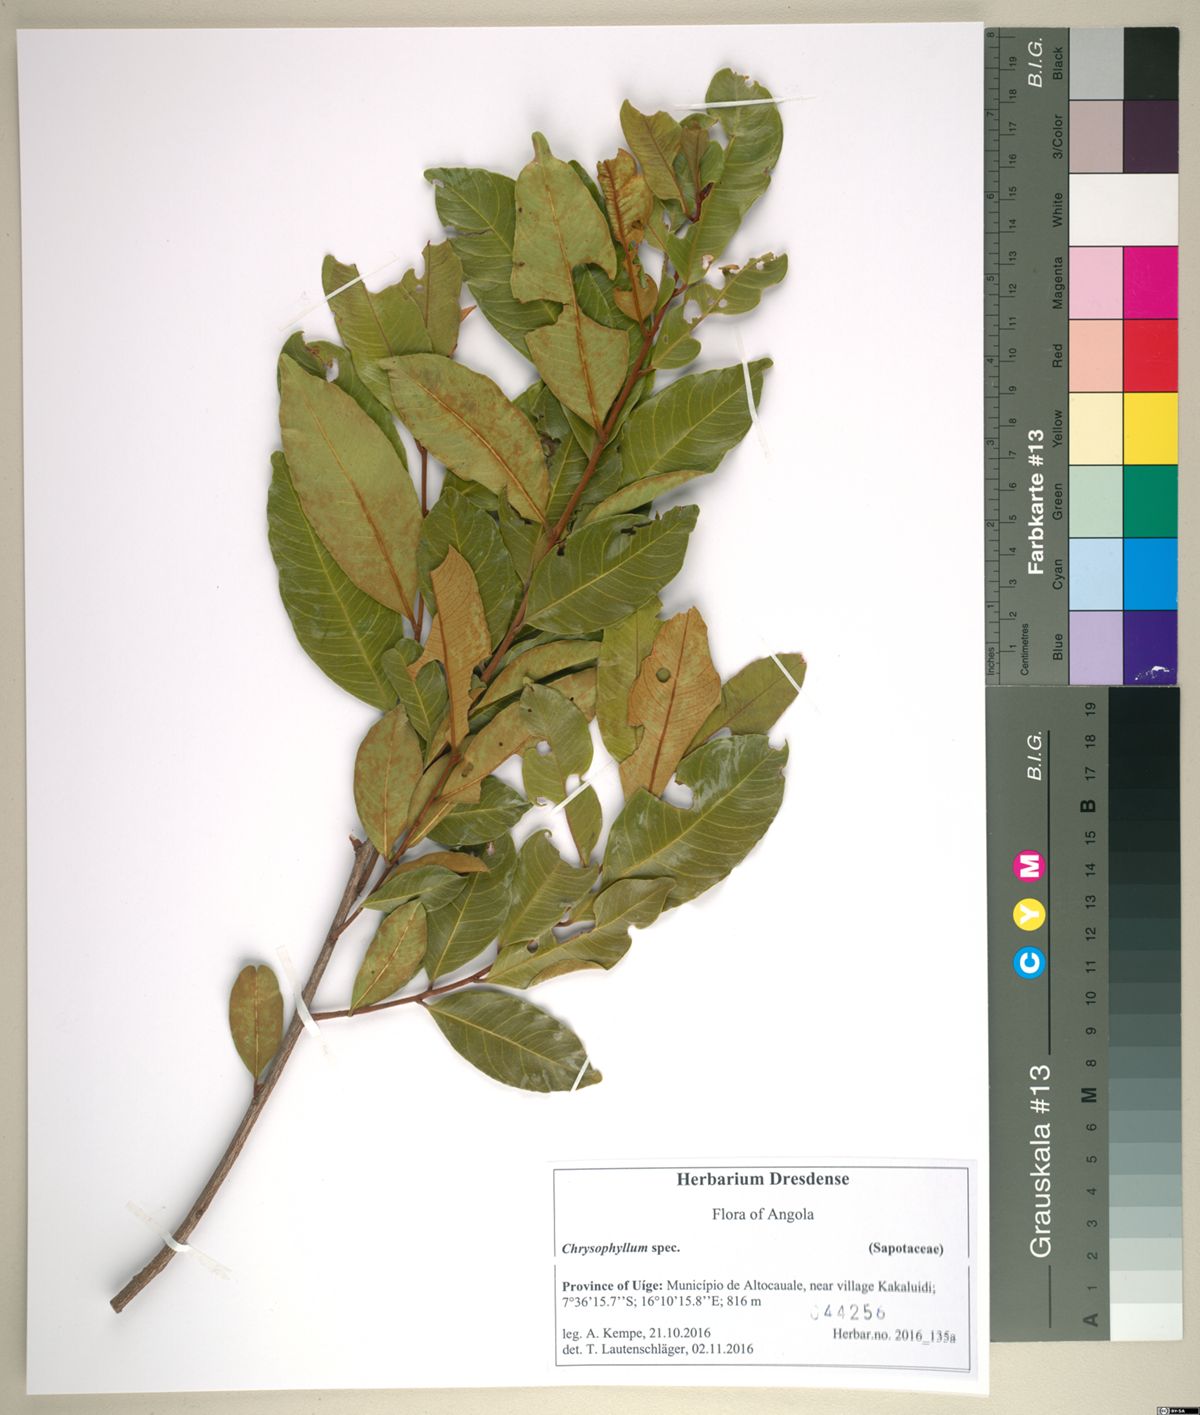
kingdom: Plantae
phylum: Tracheophyta
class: Magnoliopsida
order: Ericales
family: Sapotaceae
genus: Donella
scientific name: Donella bangweolensis
